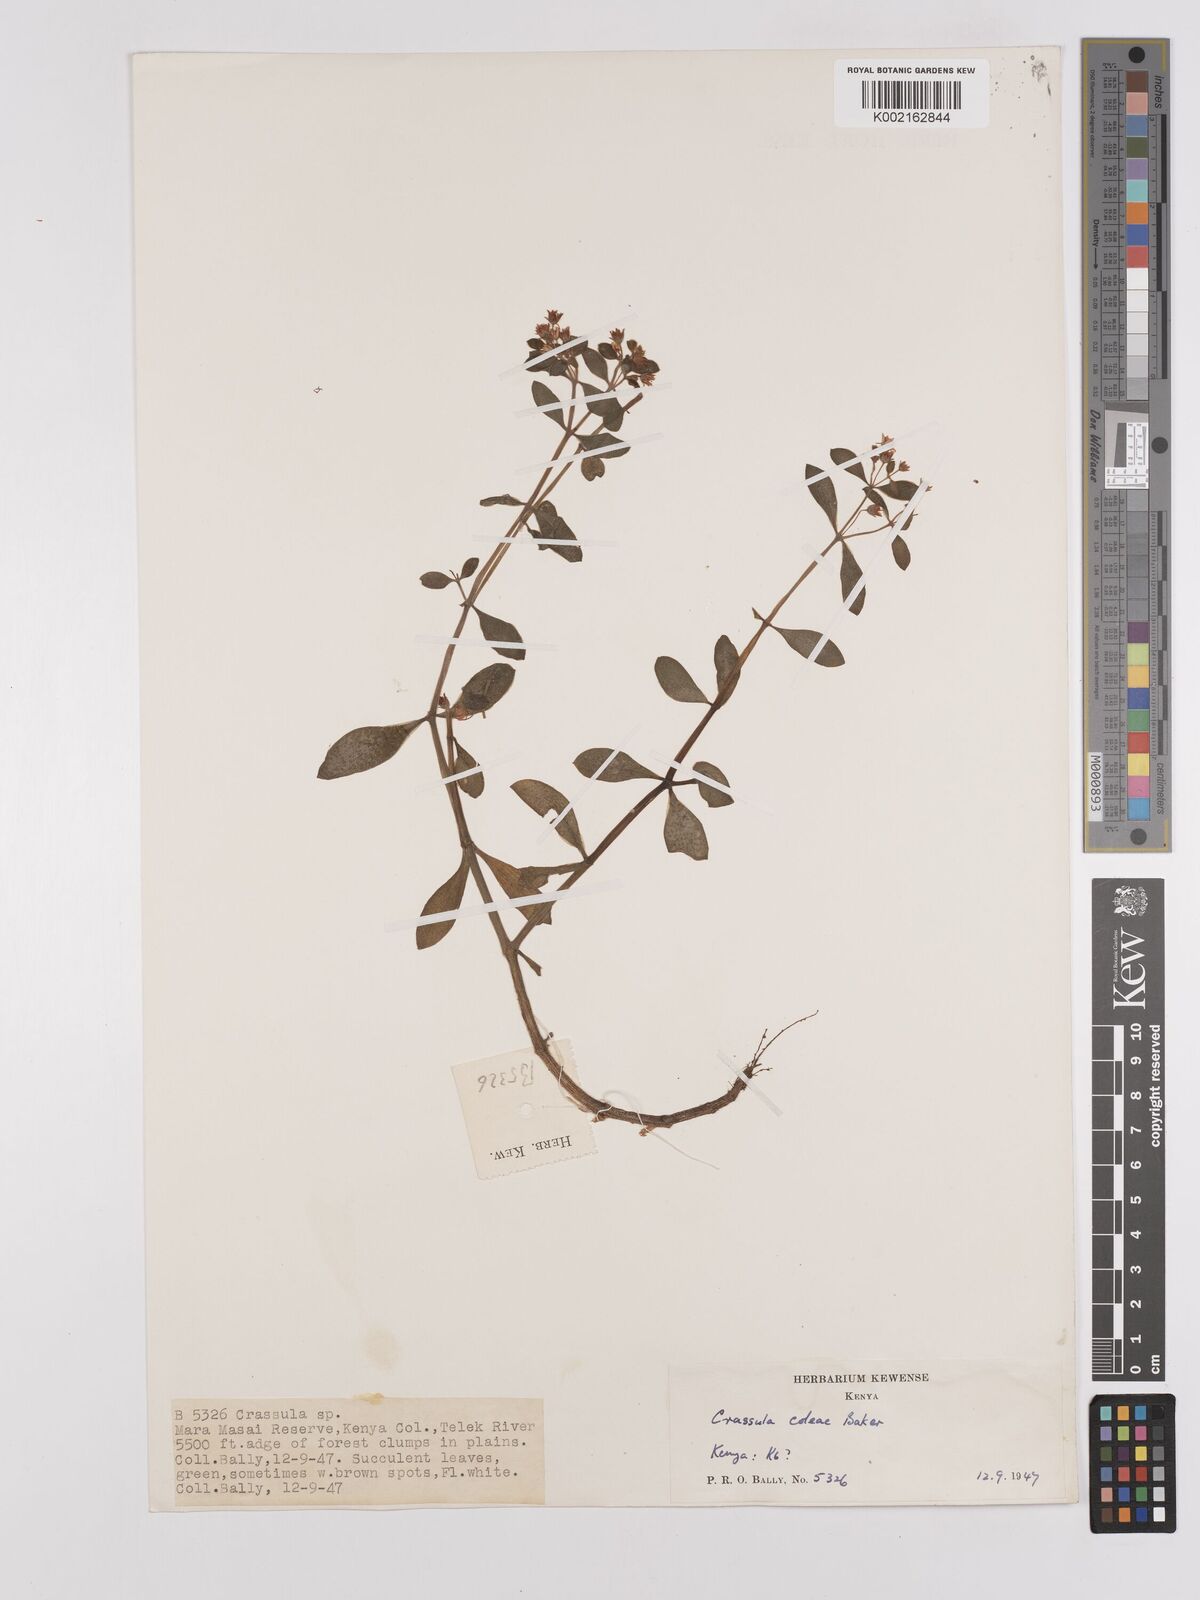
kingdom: Plantae
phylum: Tracheophyta
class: Magnoliopsida
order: Saxifragales
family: Crassulaceae
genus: Crassula
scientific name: Crassula volkensii
